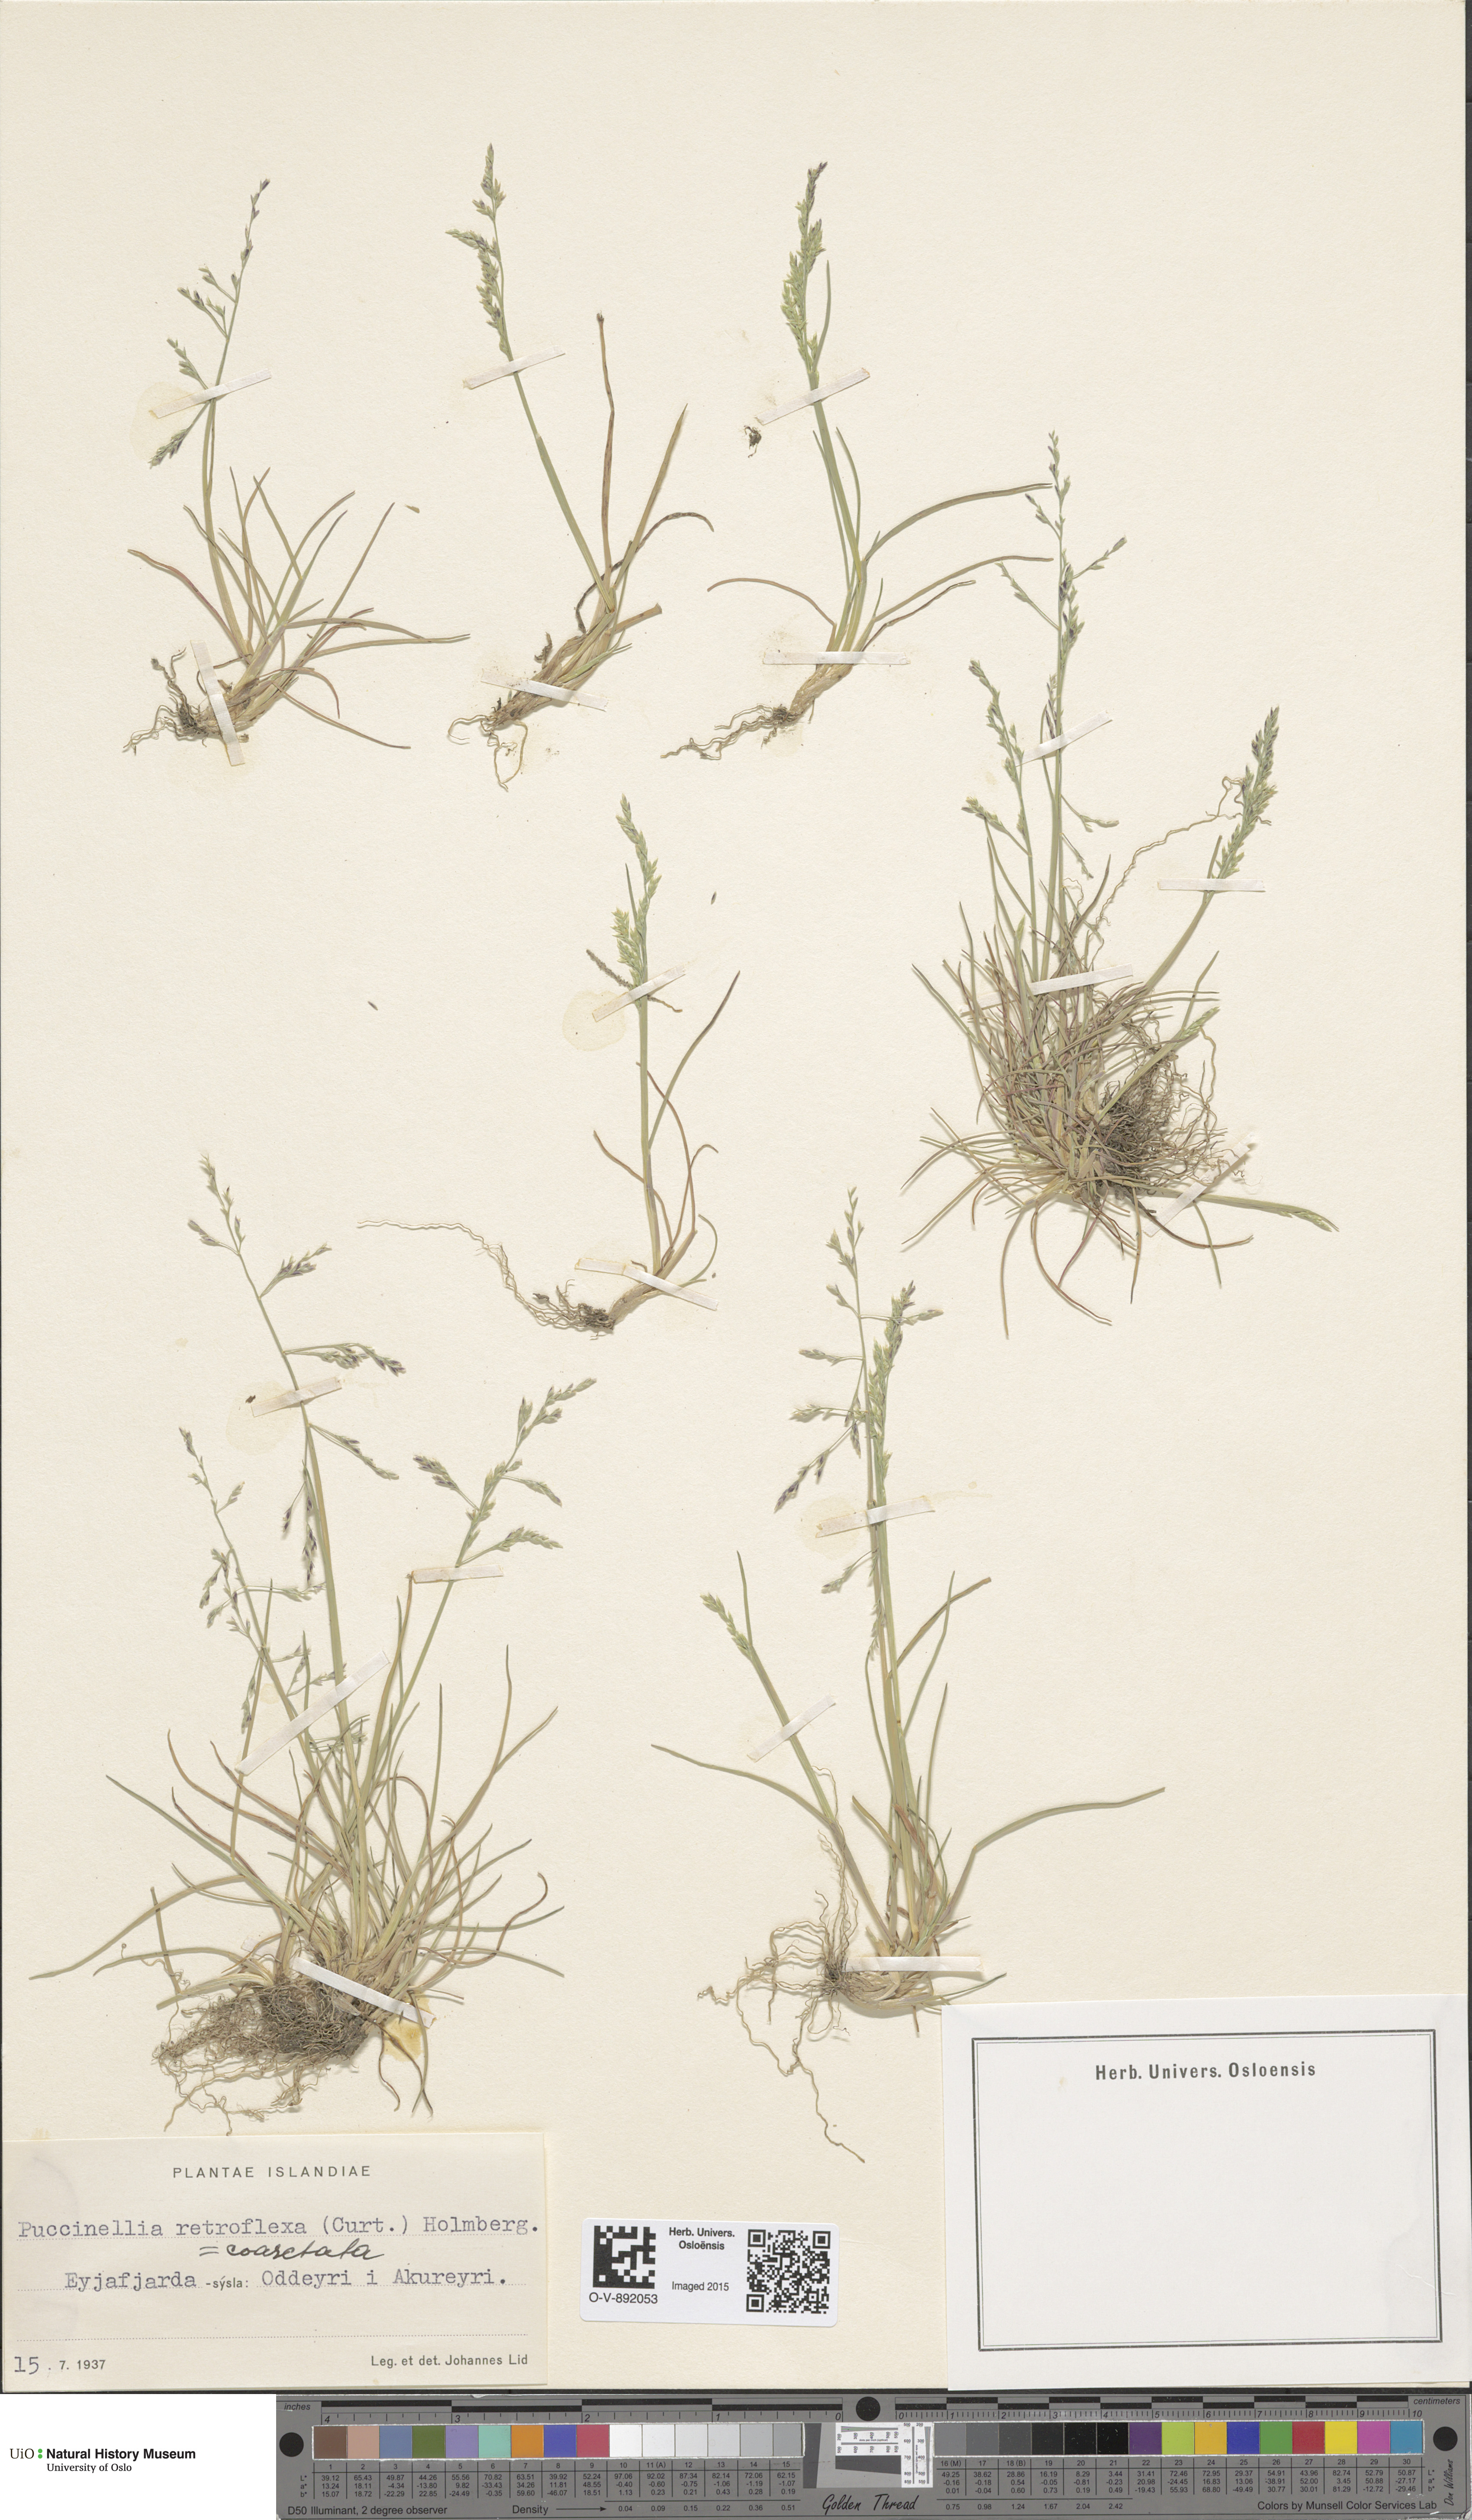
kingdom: Plantae
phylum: Tracheophyta
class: Liliopsida
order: Poales
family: Poaceae
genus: Puccinellia
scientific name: Puccinellia distans
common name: Weeping alkaligrass
